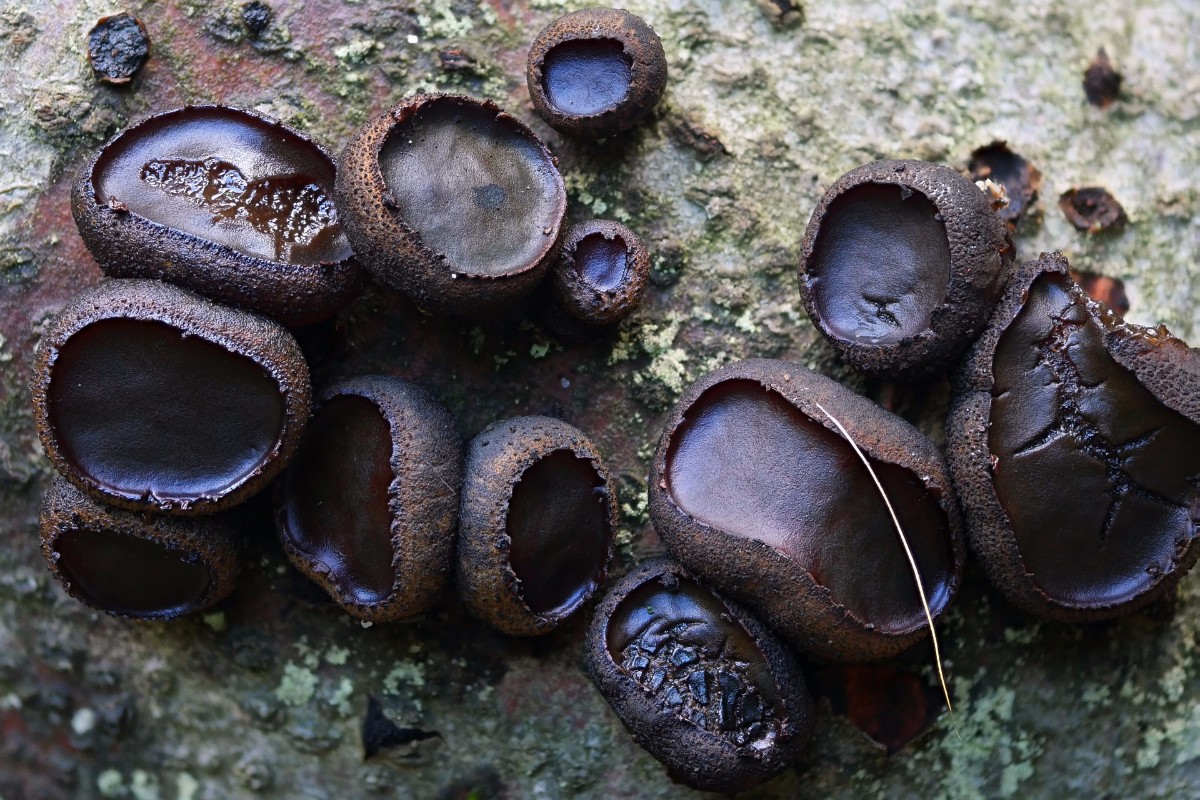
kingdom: Fungi
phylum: Ascomycota
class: Leotiomycetes
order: Phacidiales
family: Phacidiaceae
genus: Bulgaria
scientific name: Bulgaria inquinans
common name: afsmittende topsvamp
